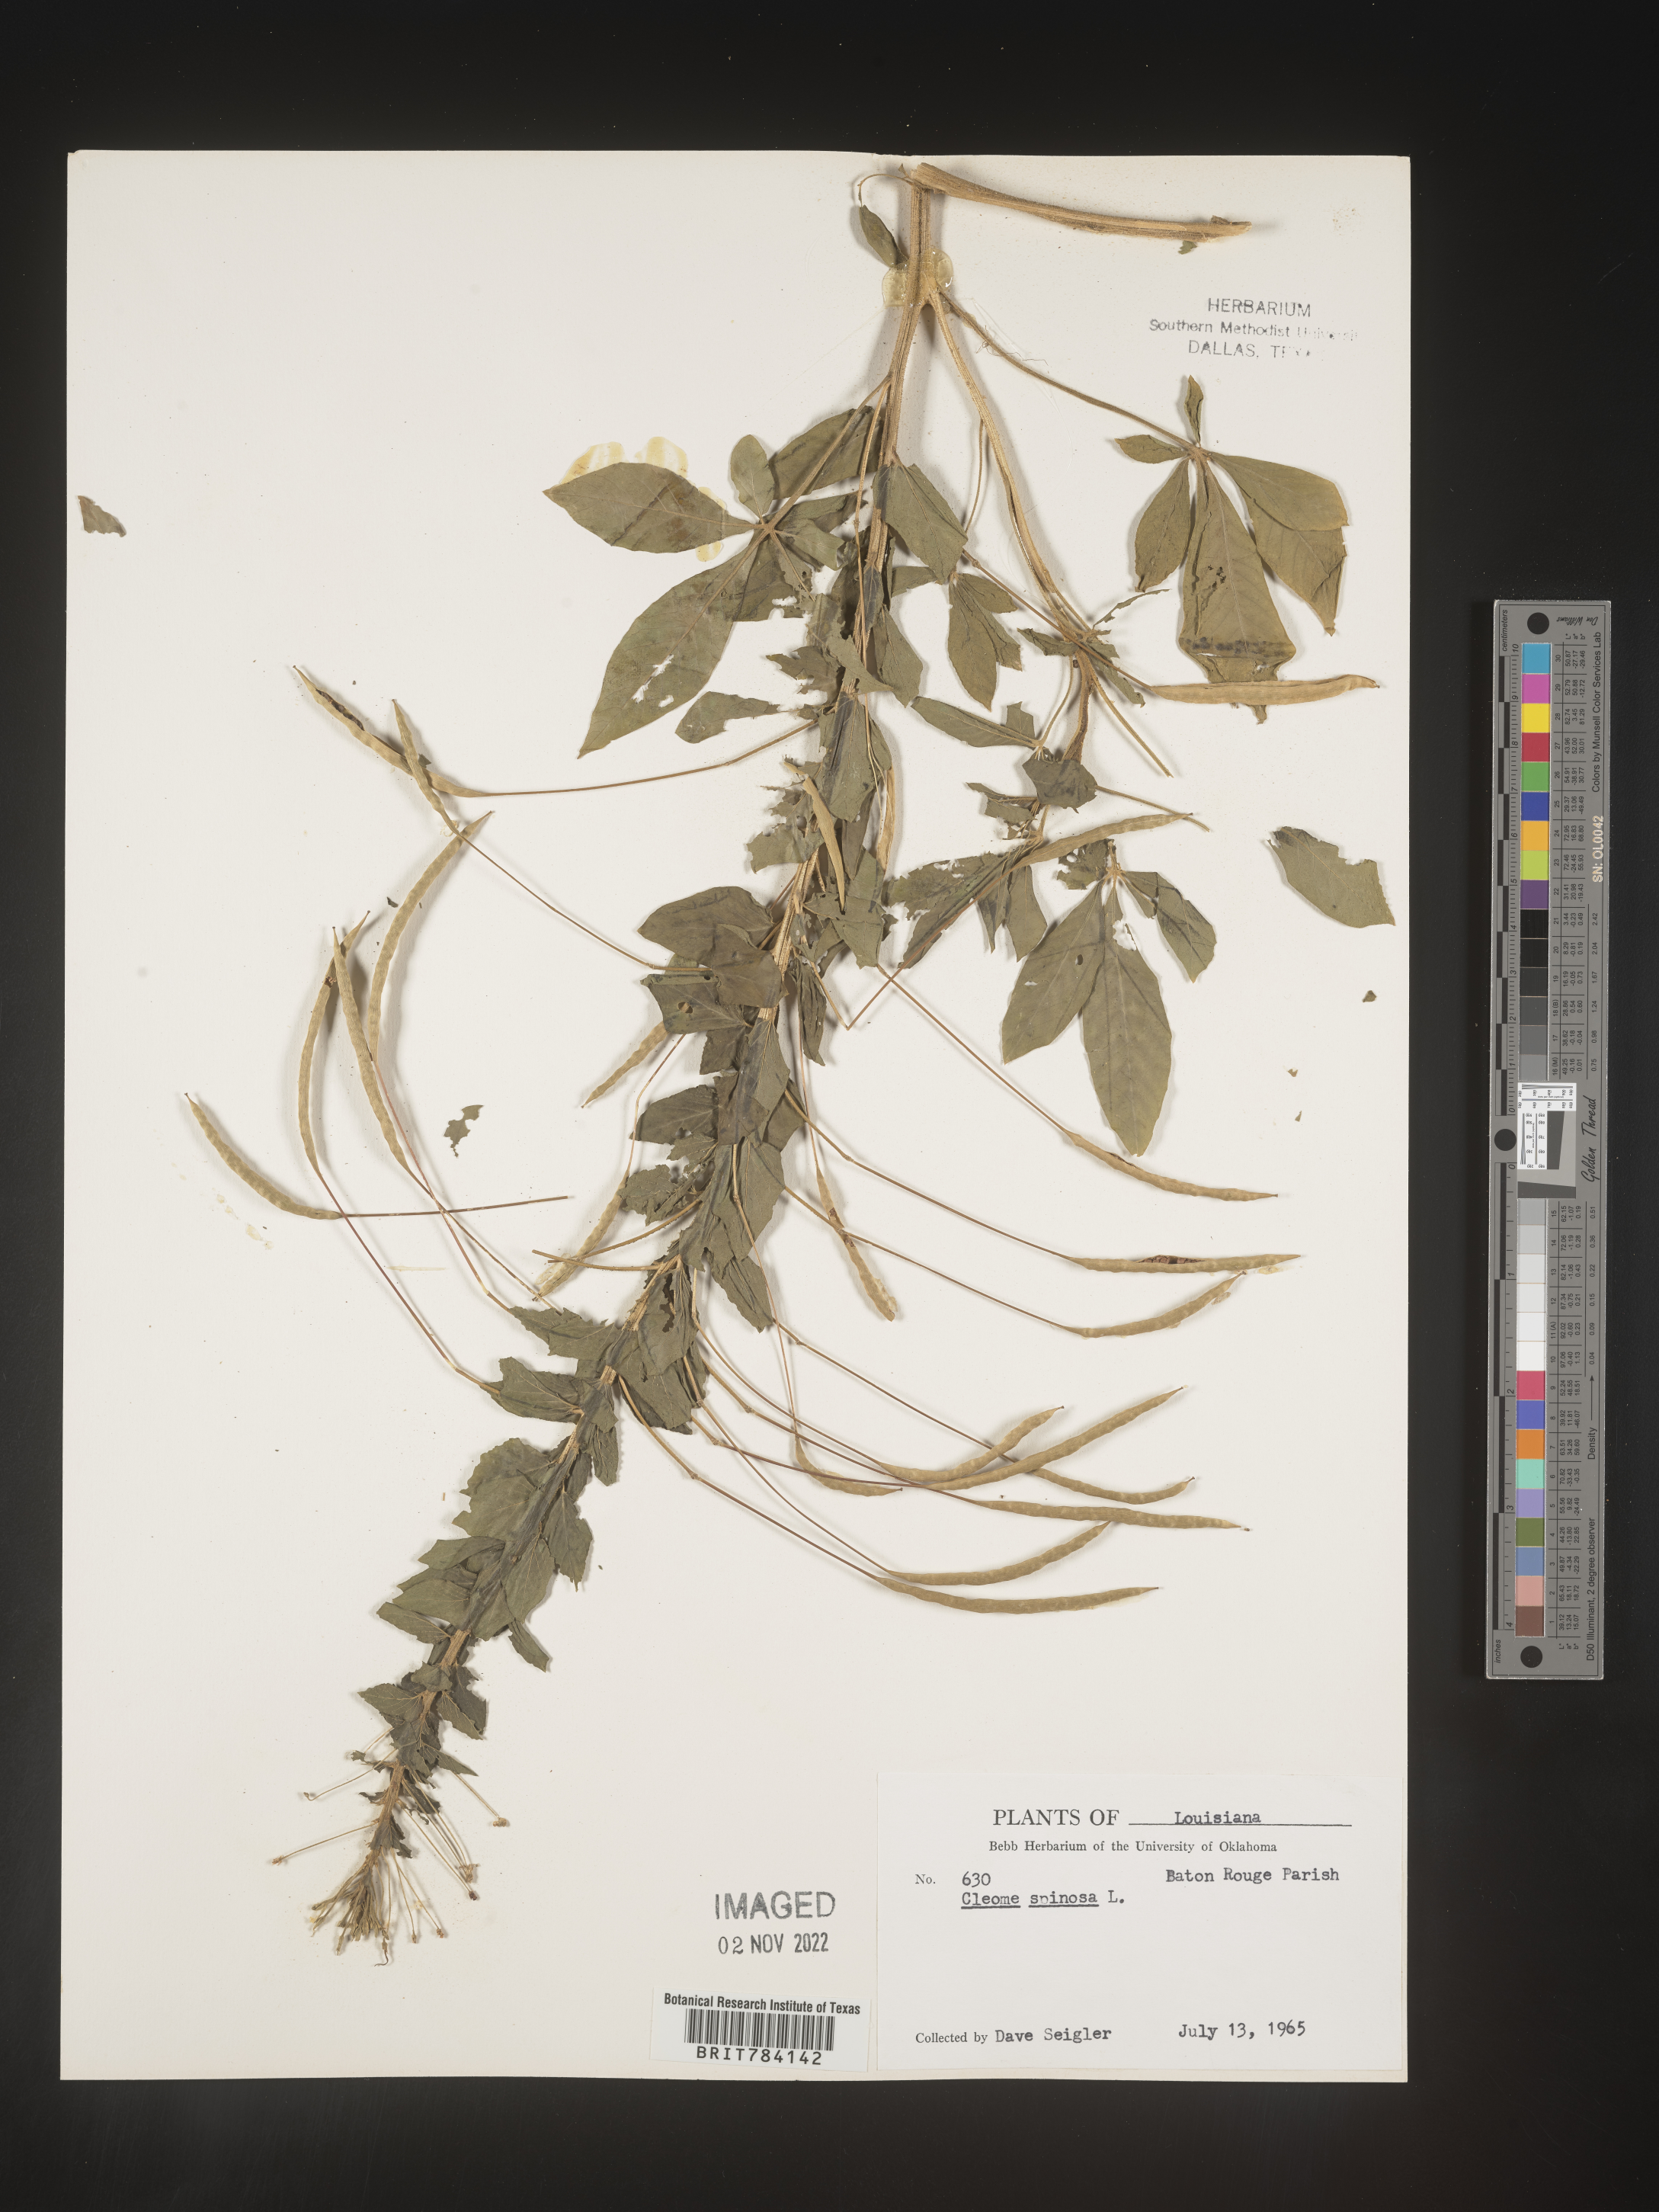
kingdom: Plantae
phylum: Tracheophyta
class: Magnoliopsida
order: Brassicales
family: Cleomaceae
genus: Cleome
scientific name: Cleome
